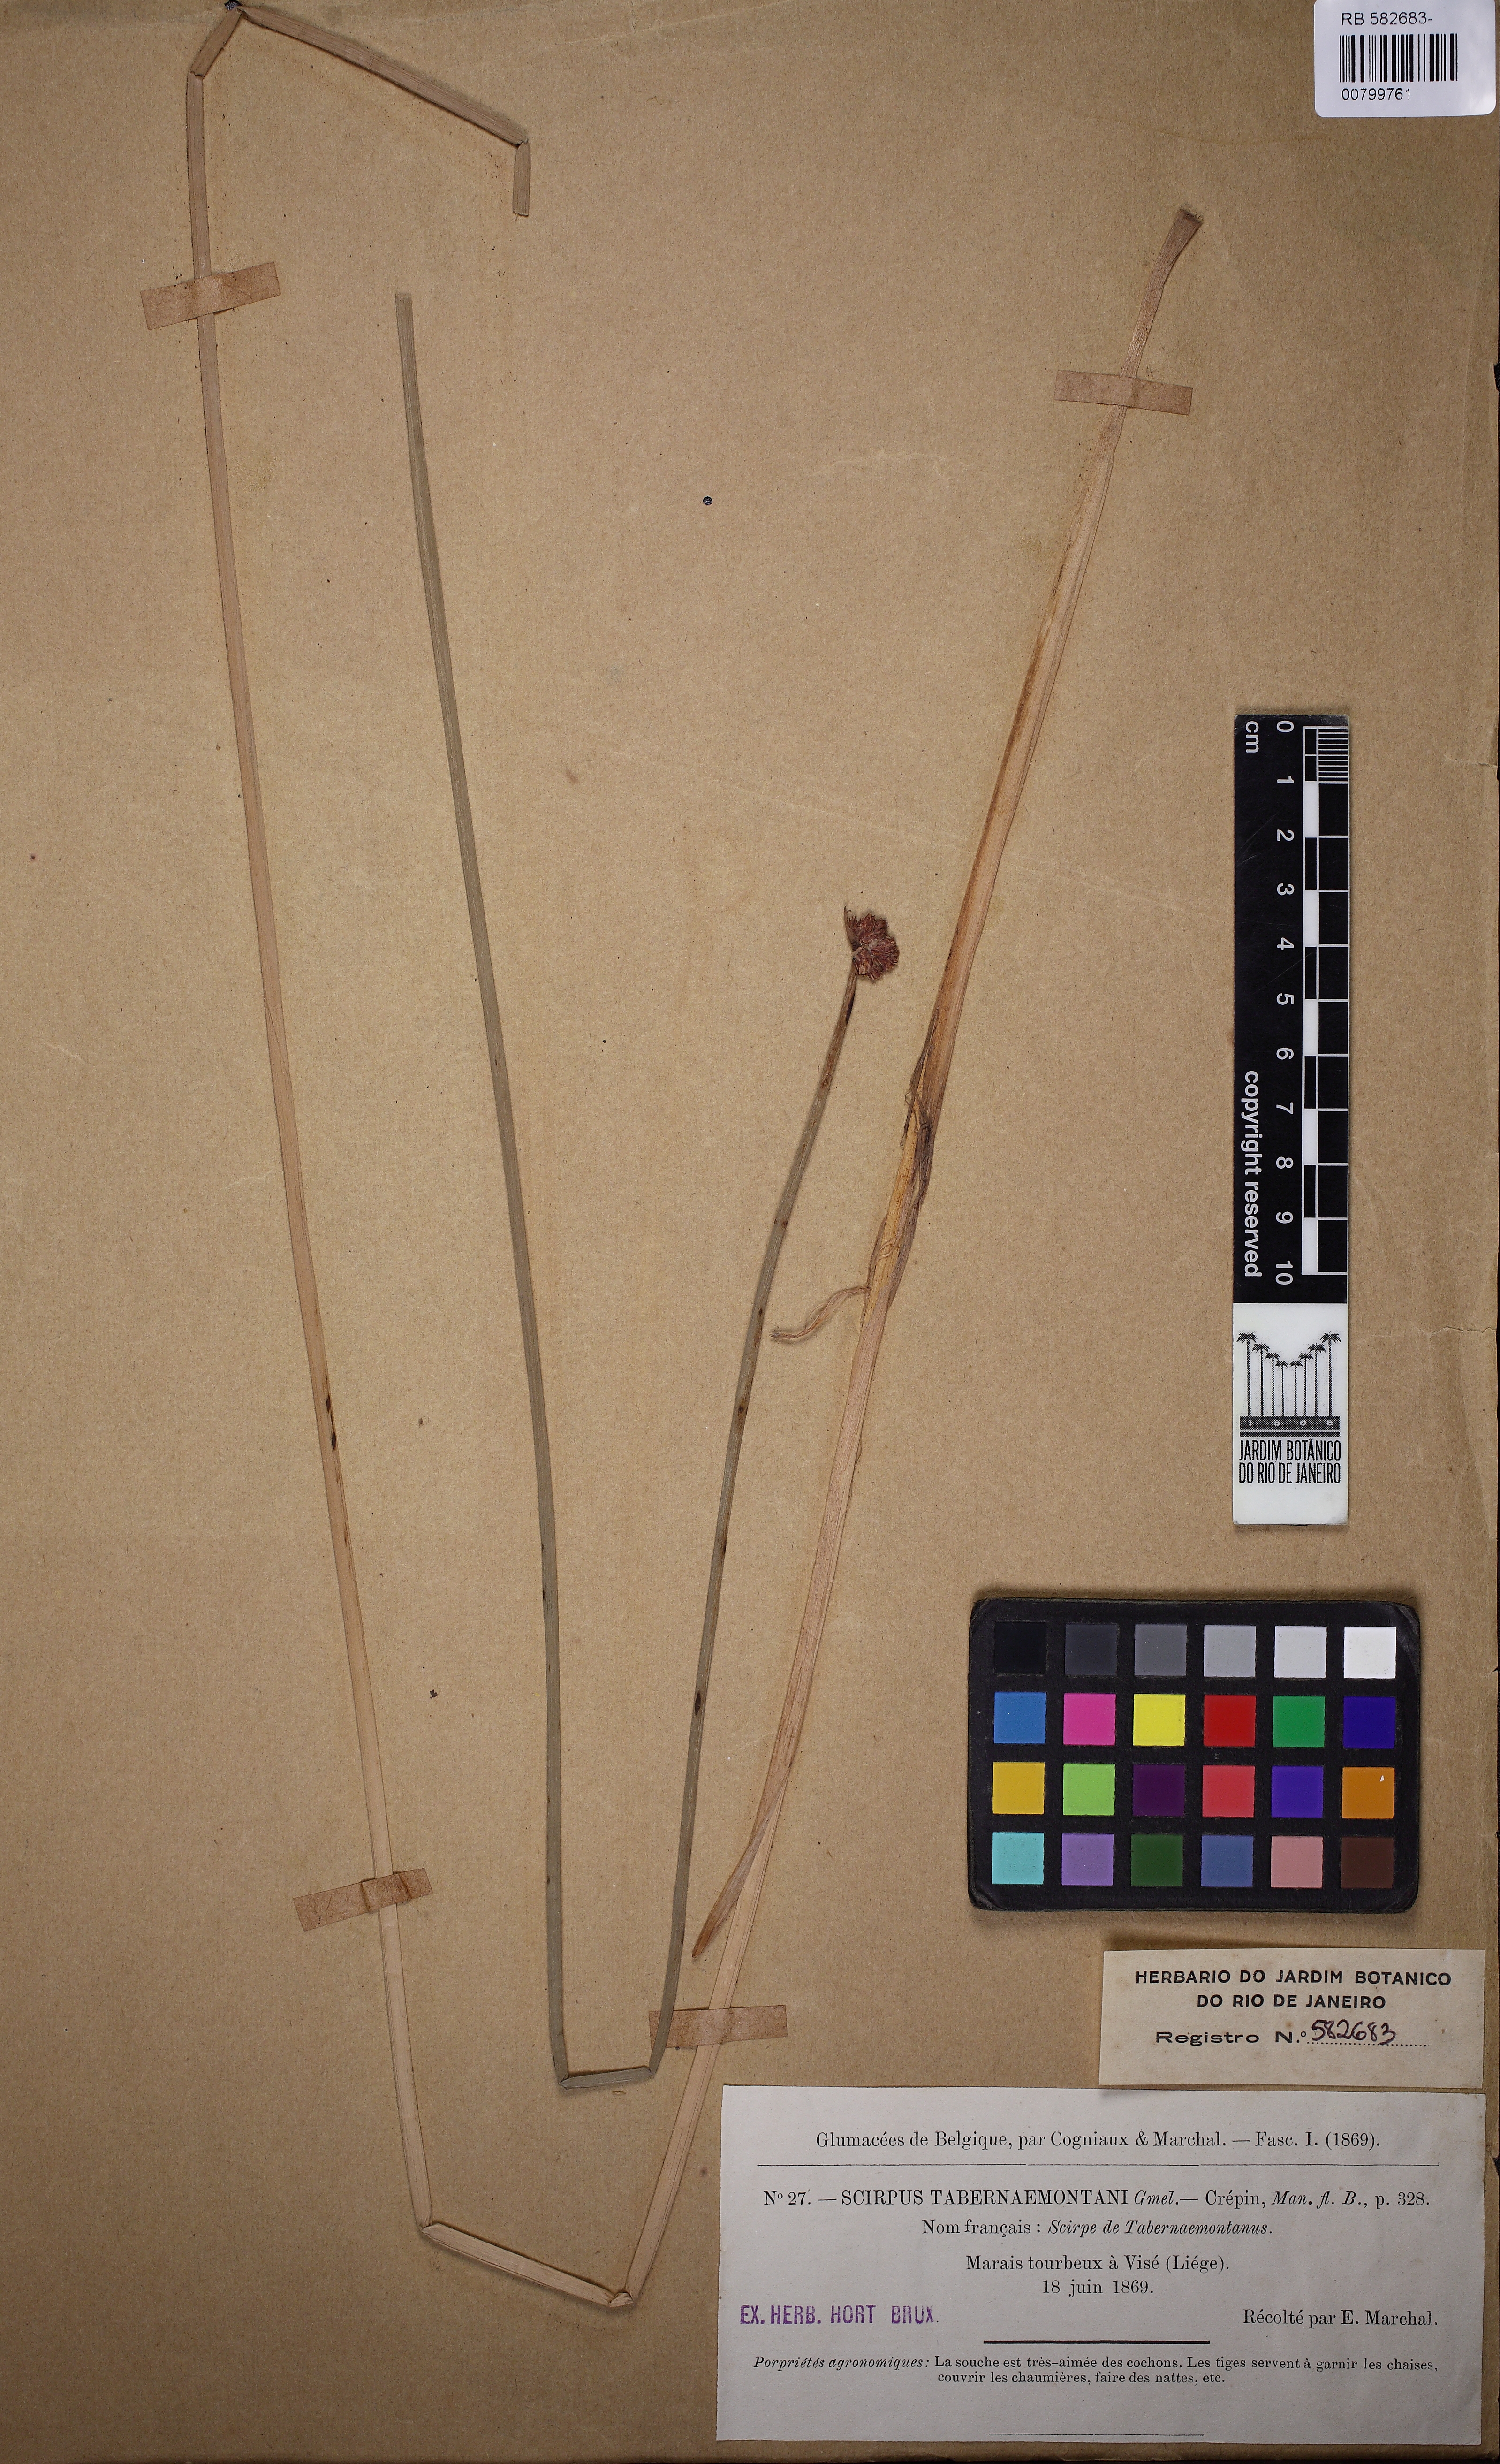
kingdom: Plantae
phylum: Tracheophyta
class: Liliopsida
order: Poales
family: Cyperaceae
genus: Schoenoplectus
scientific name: Schoenoplectus tabernaemontani
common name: Grey club-rush
